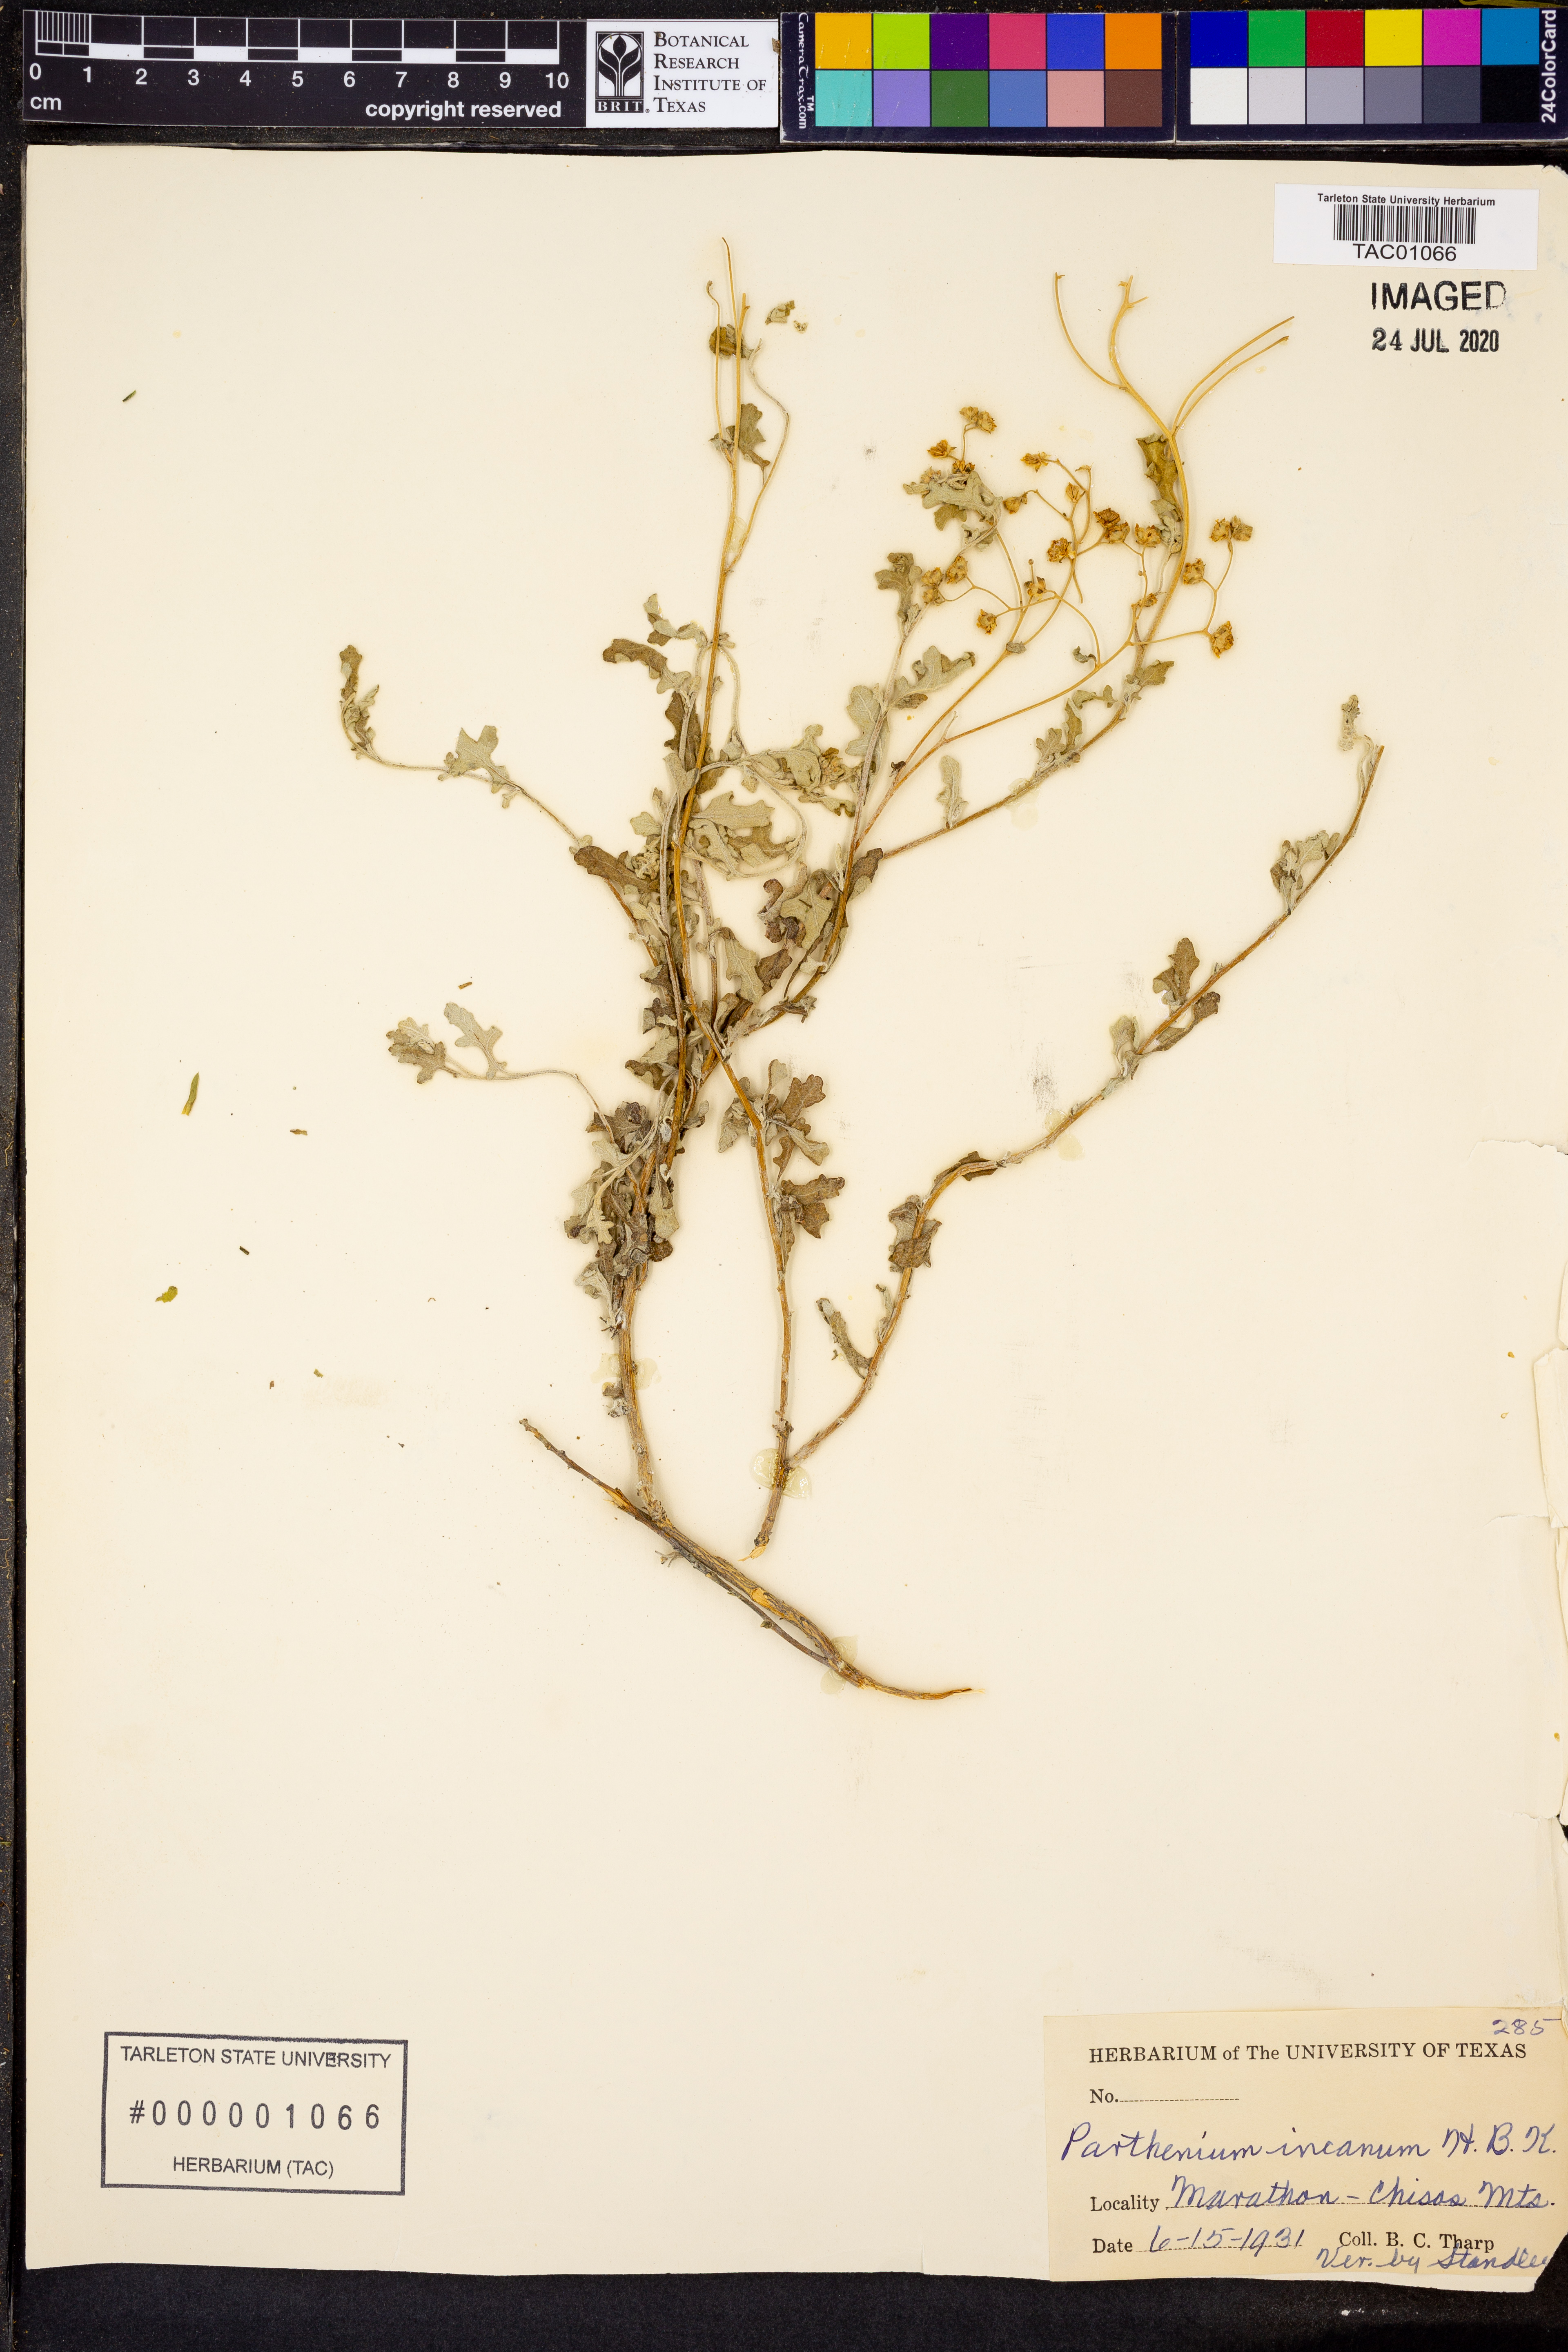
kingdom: Plantae
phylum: Tracheophyta
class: Magnoliopsida
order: Asterales
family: Asteraceae
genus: Parthenium
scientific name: Parthenium incanum
